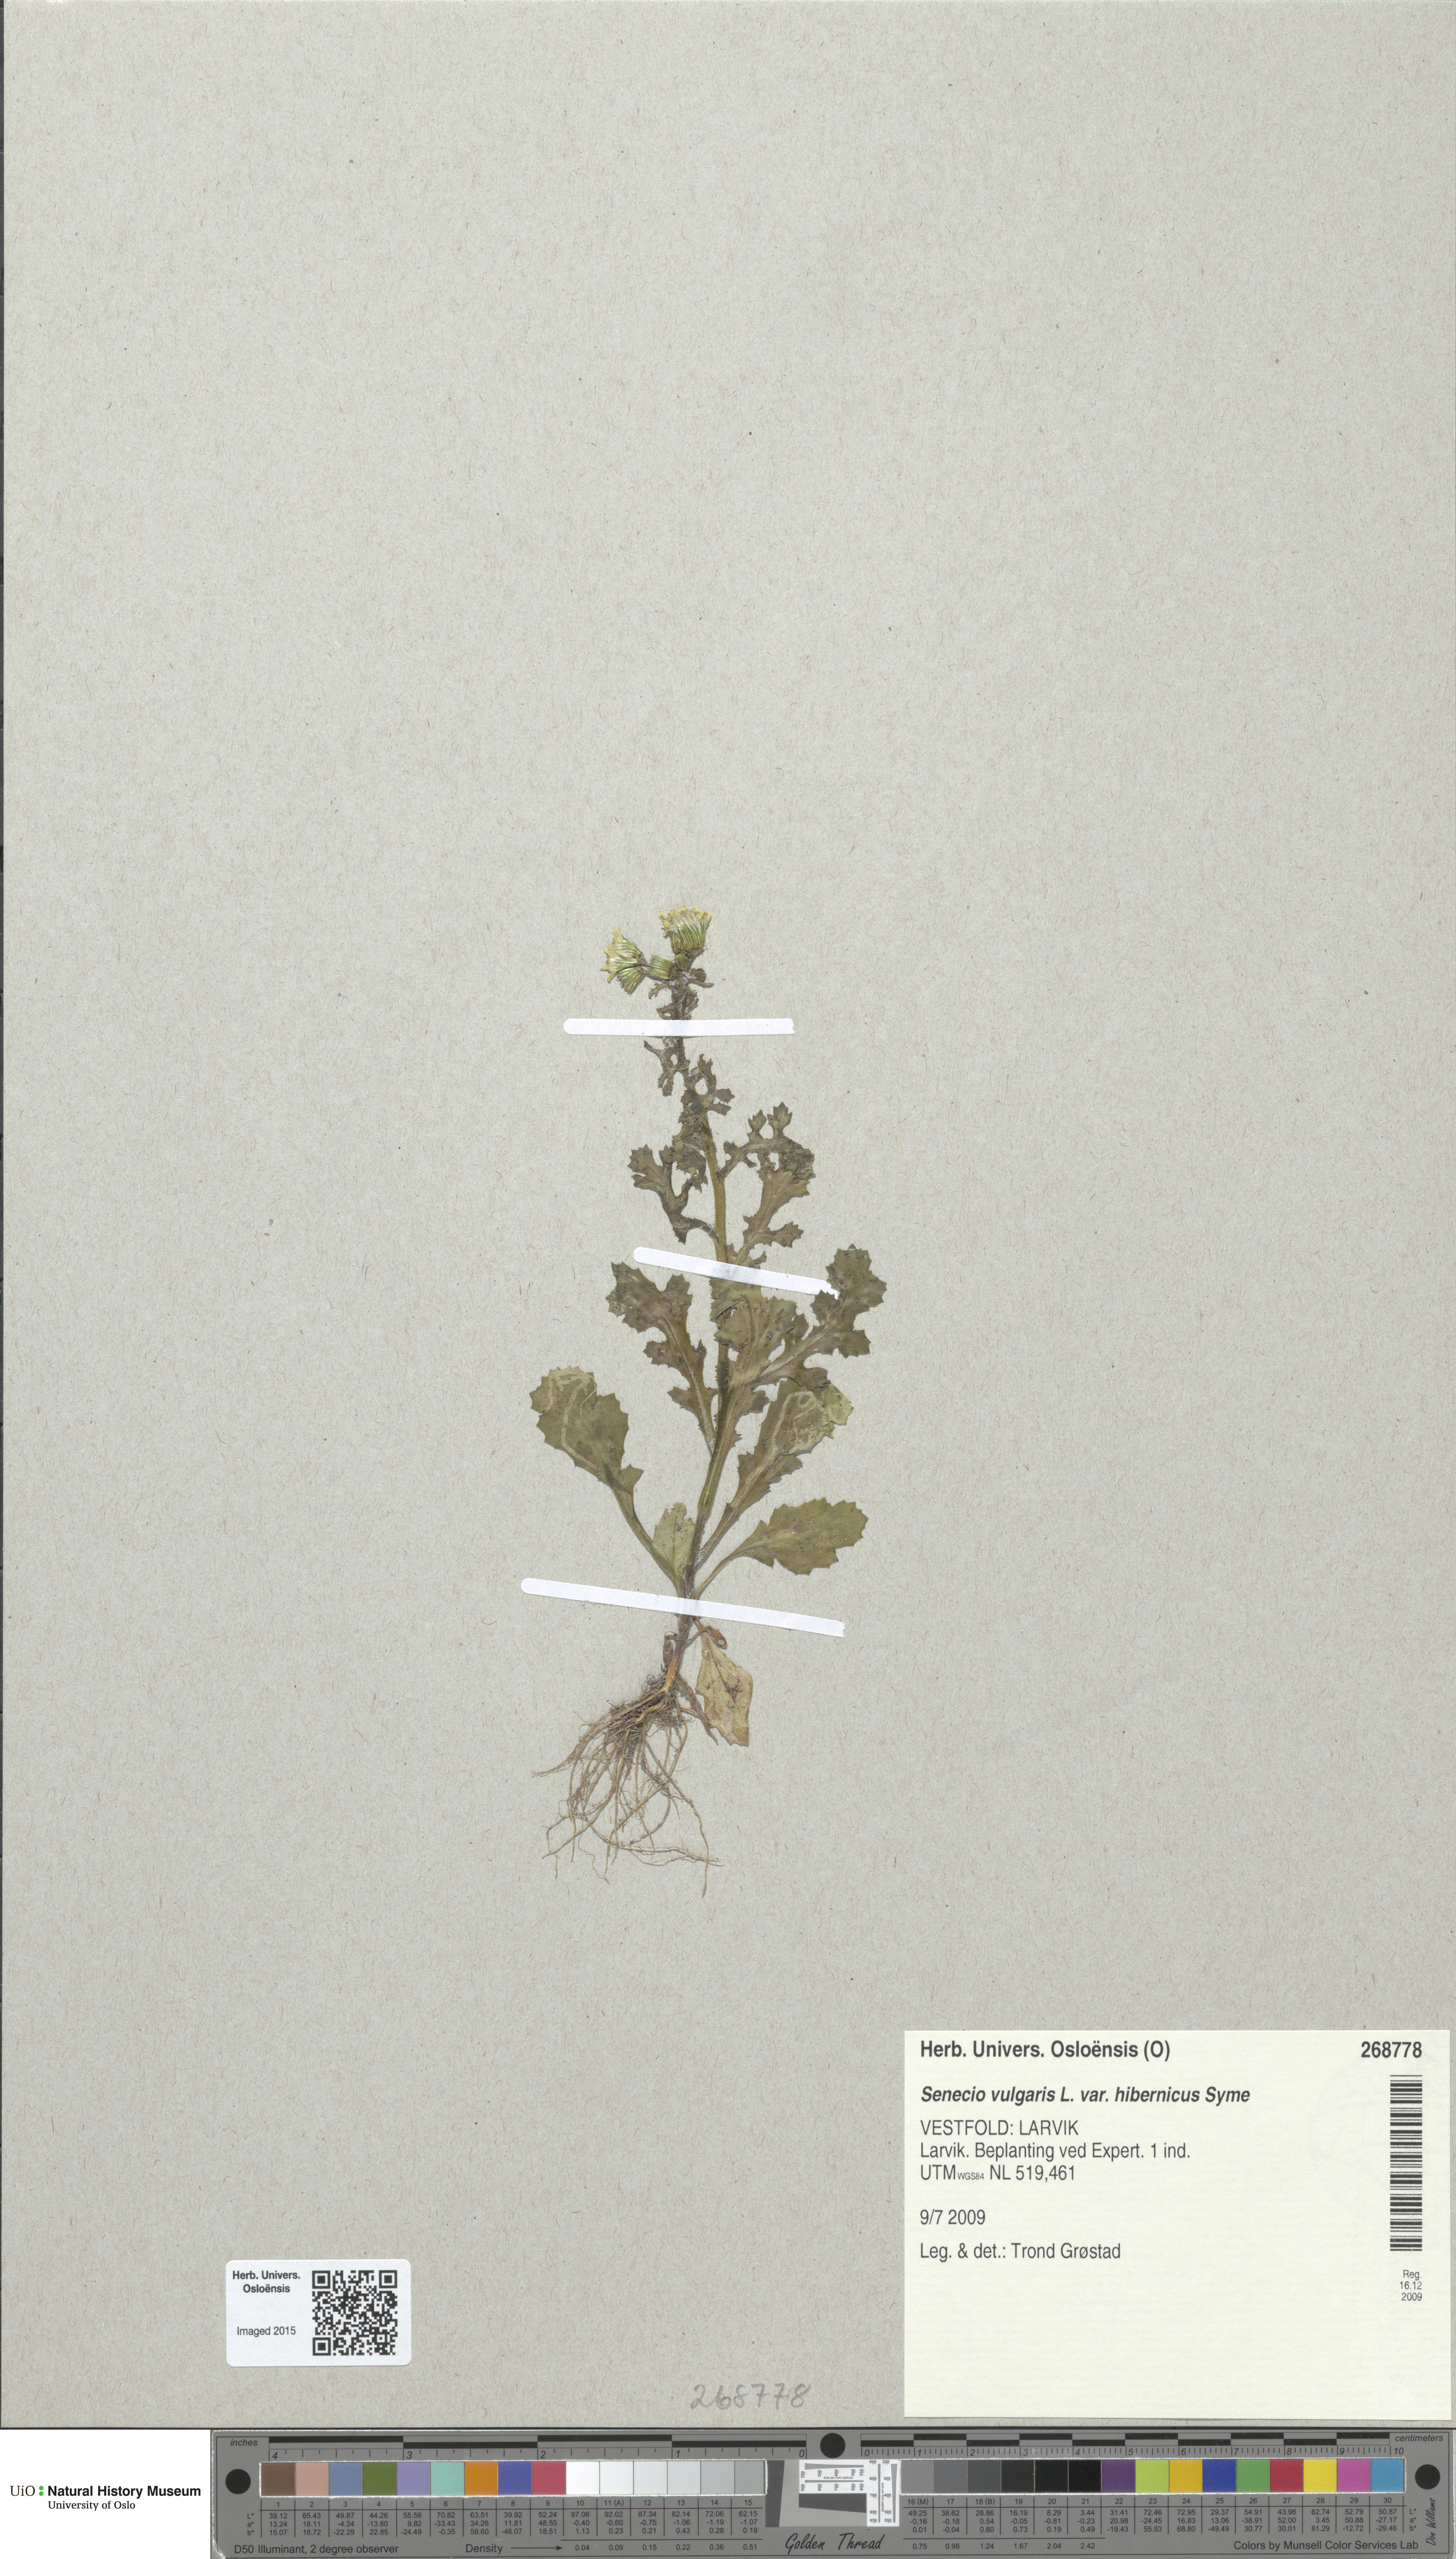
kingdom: Plantae
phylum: Tracheophyta
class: Magnoliopsida
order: Asterales
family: Asteraceae
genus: Senecio
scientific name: Senecio vulgaris
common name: Old-man-in-the-spring
